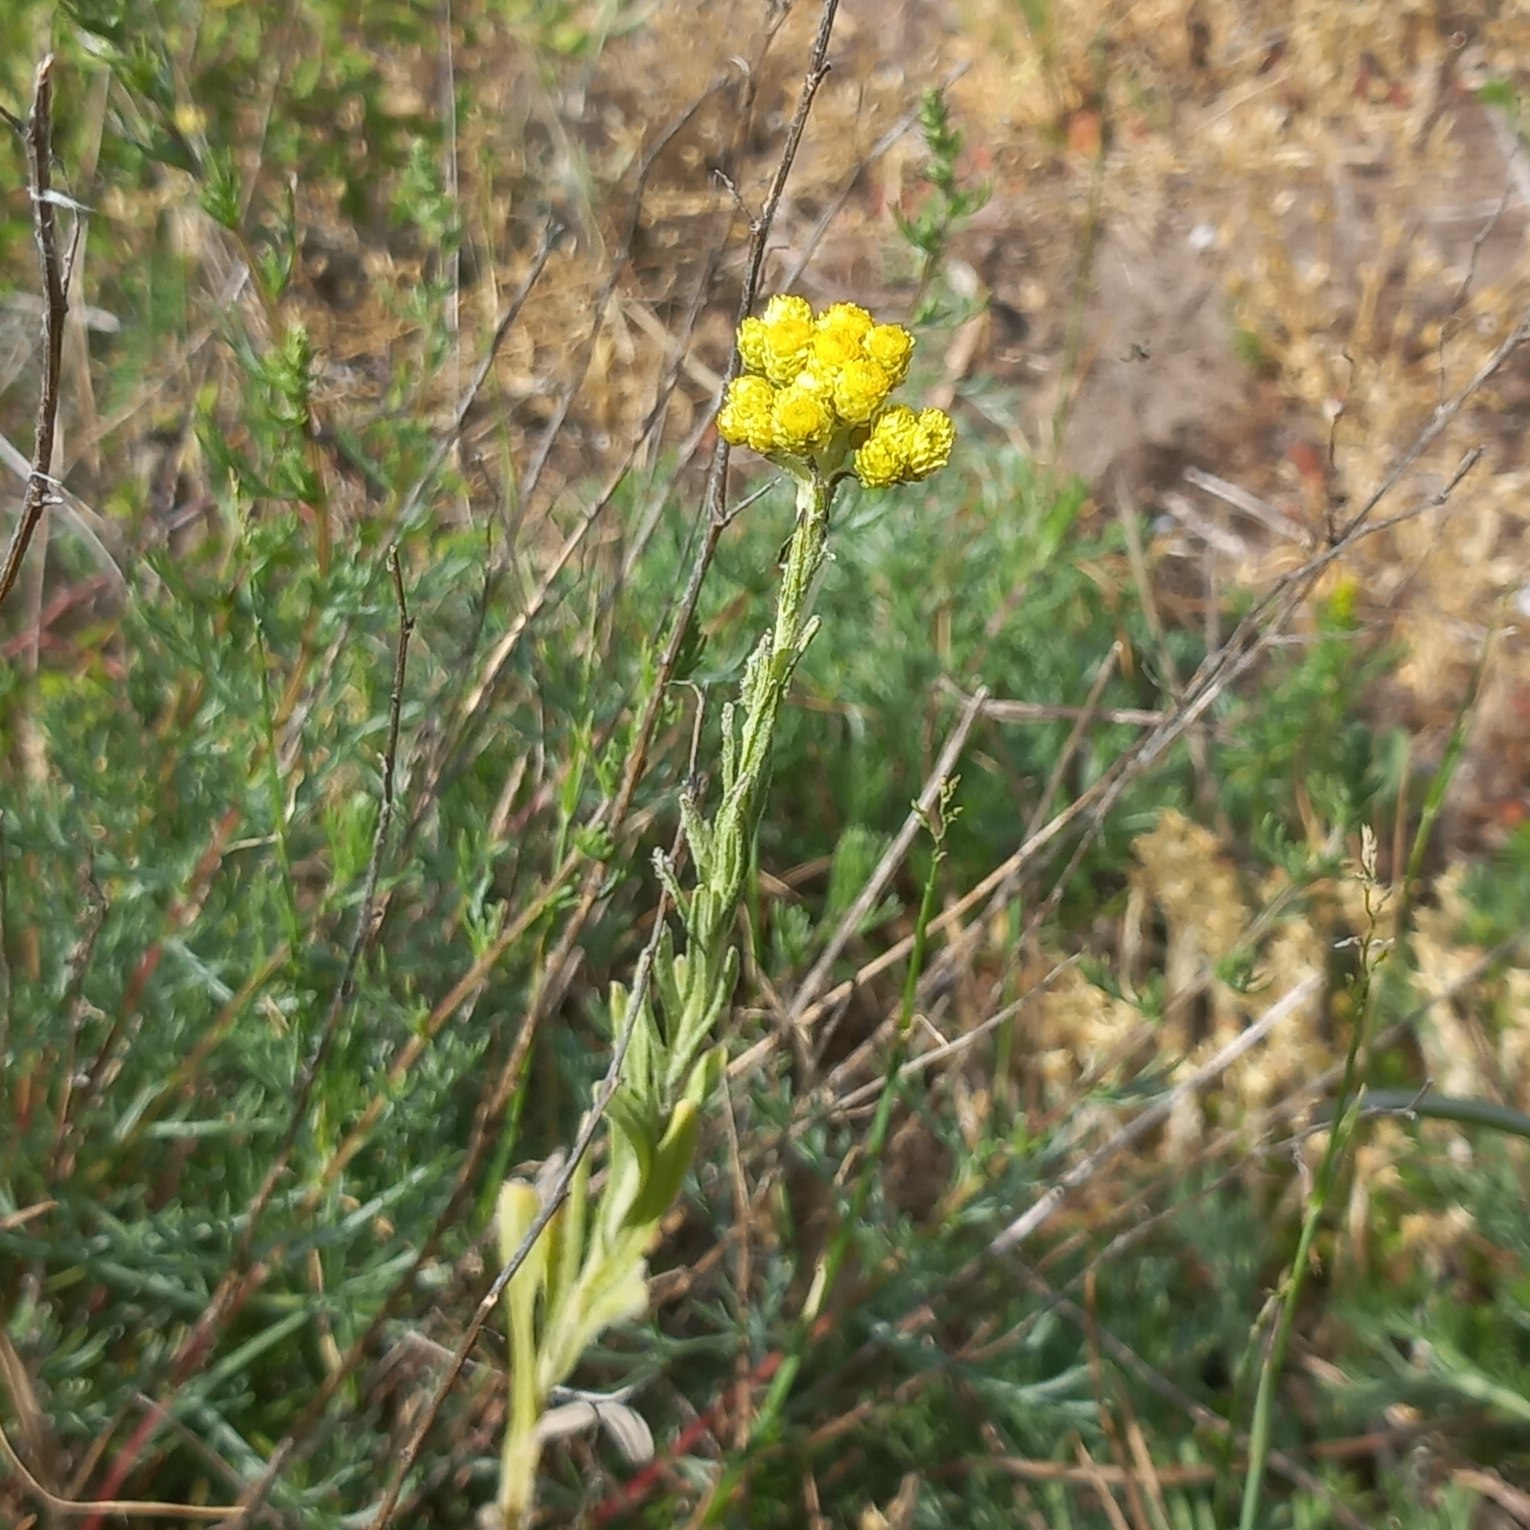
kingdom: Plantae
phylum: Tracheophyta
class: Magnoliopsida
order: Asterales
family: Asteraceae
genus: Helichrysum
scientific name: Helichrysum arenarium
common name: Gul evighedsblomst
